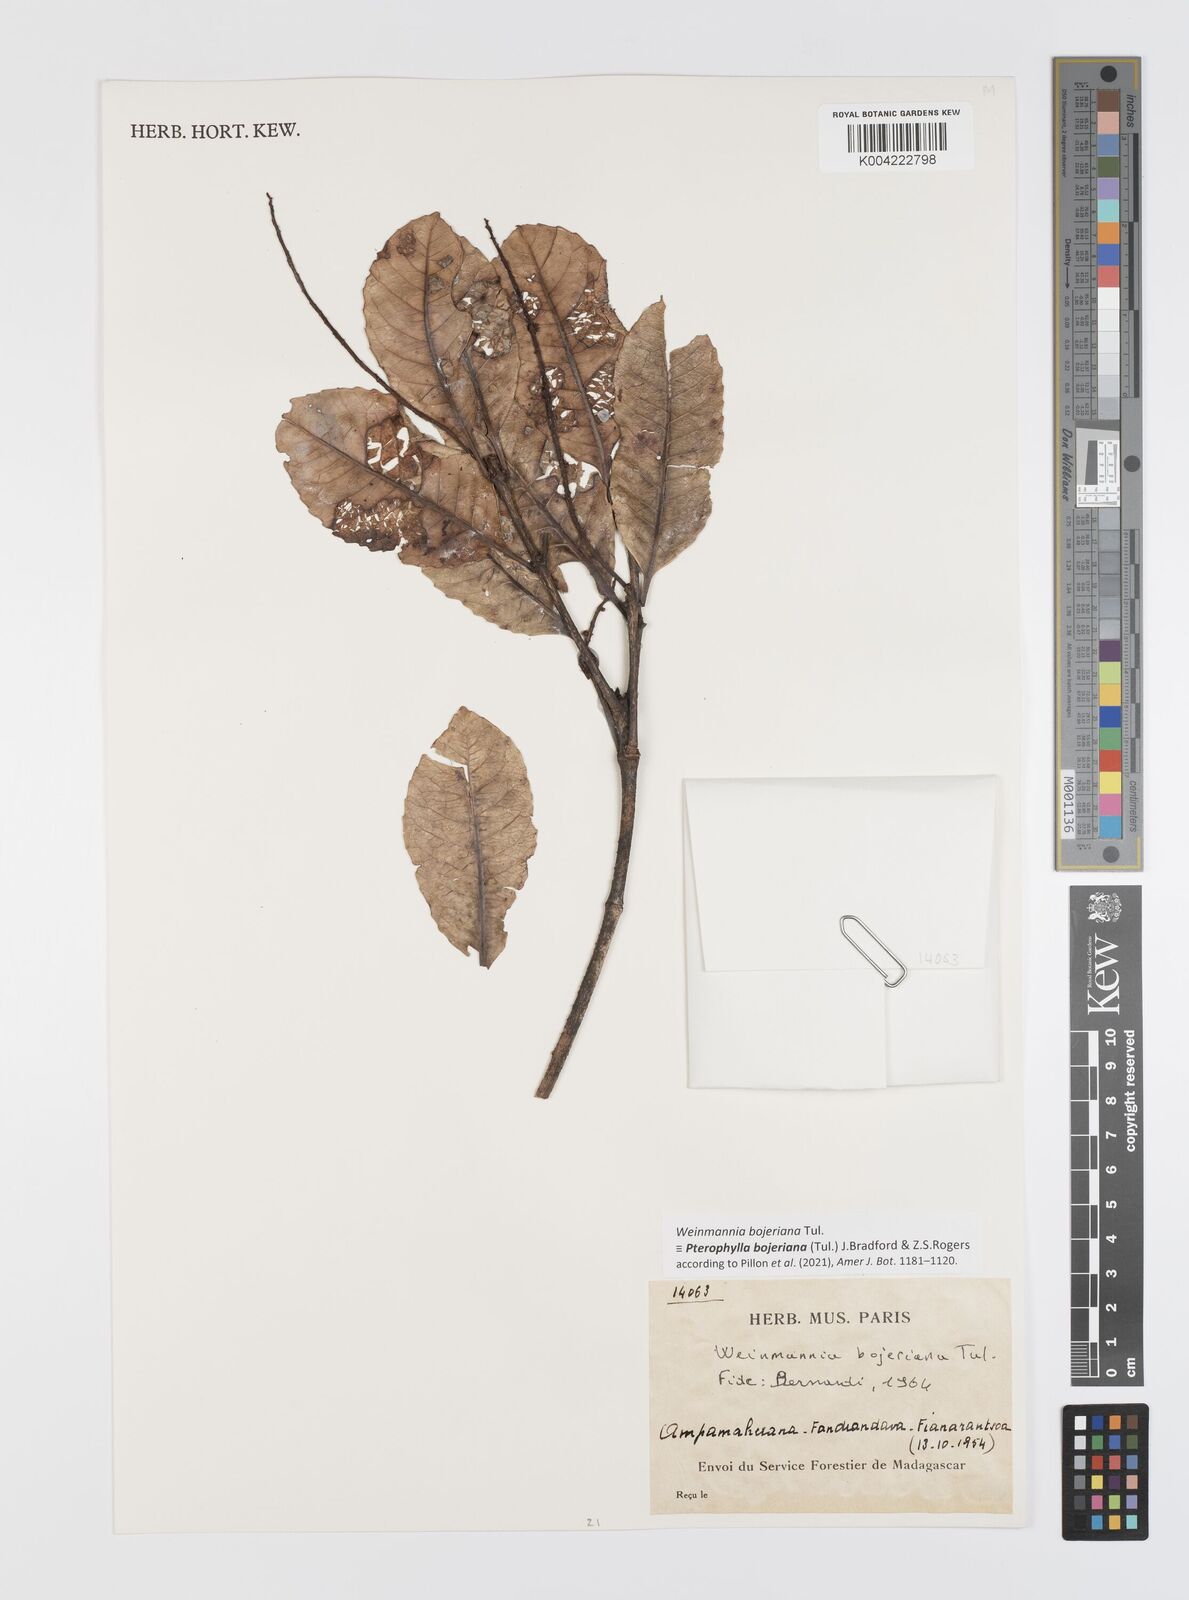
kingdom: Plantae
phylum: Tracheophyta
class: Magnoliopsida
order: Oxalidales
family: Cunoniaceae
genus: Pterophylla
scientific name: Pterophylla
